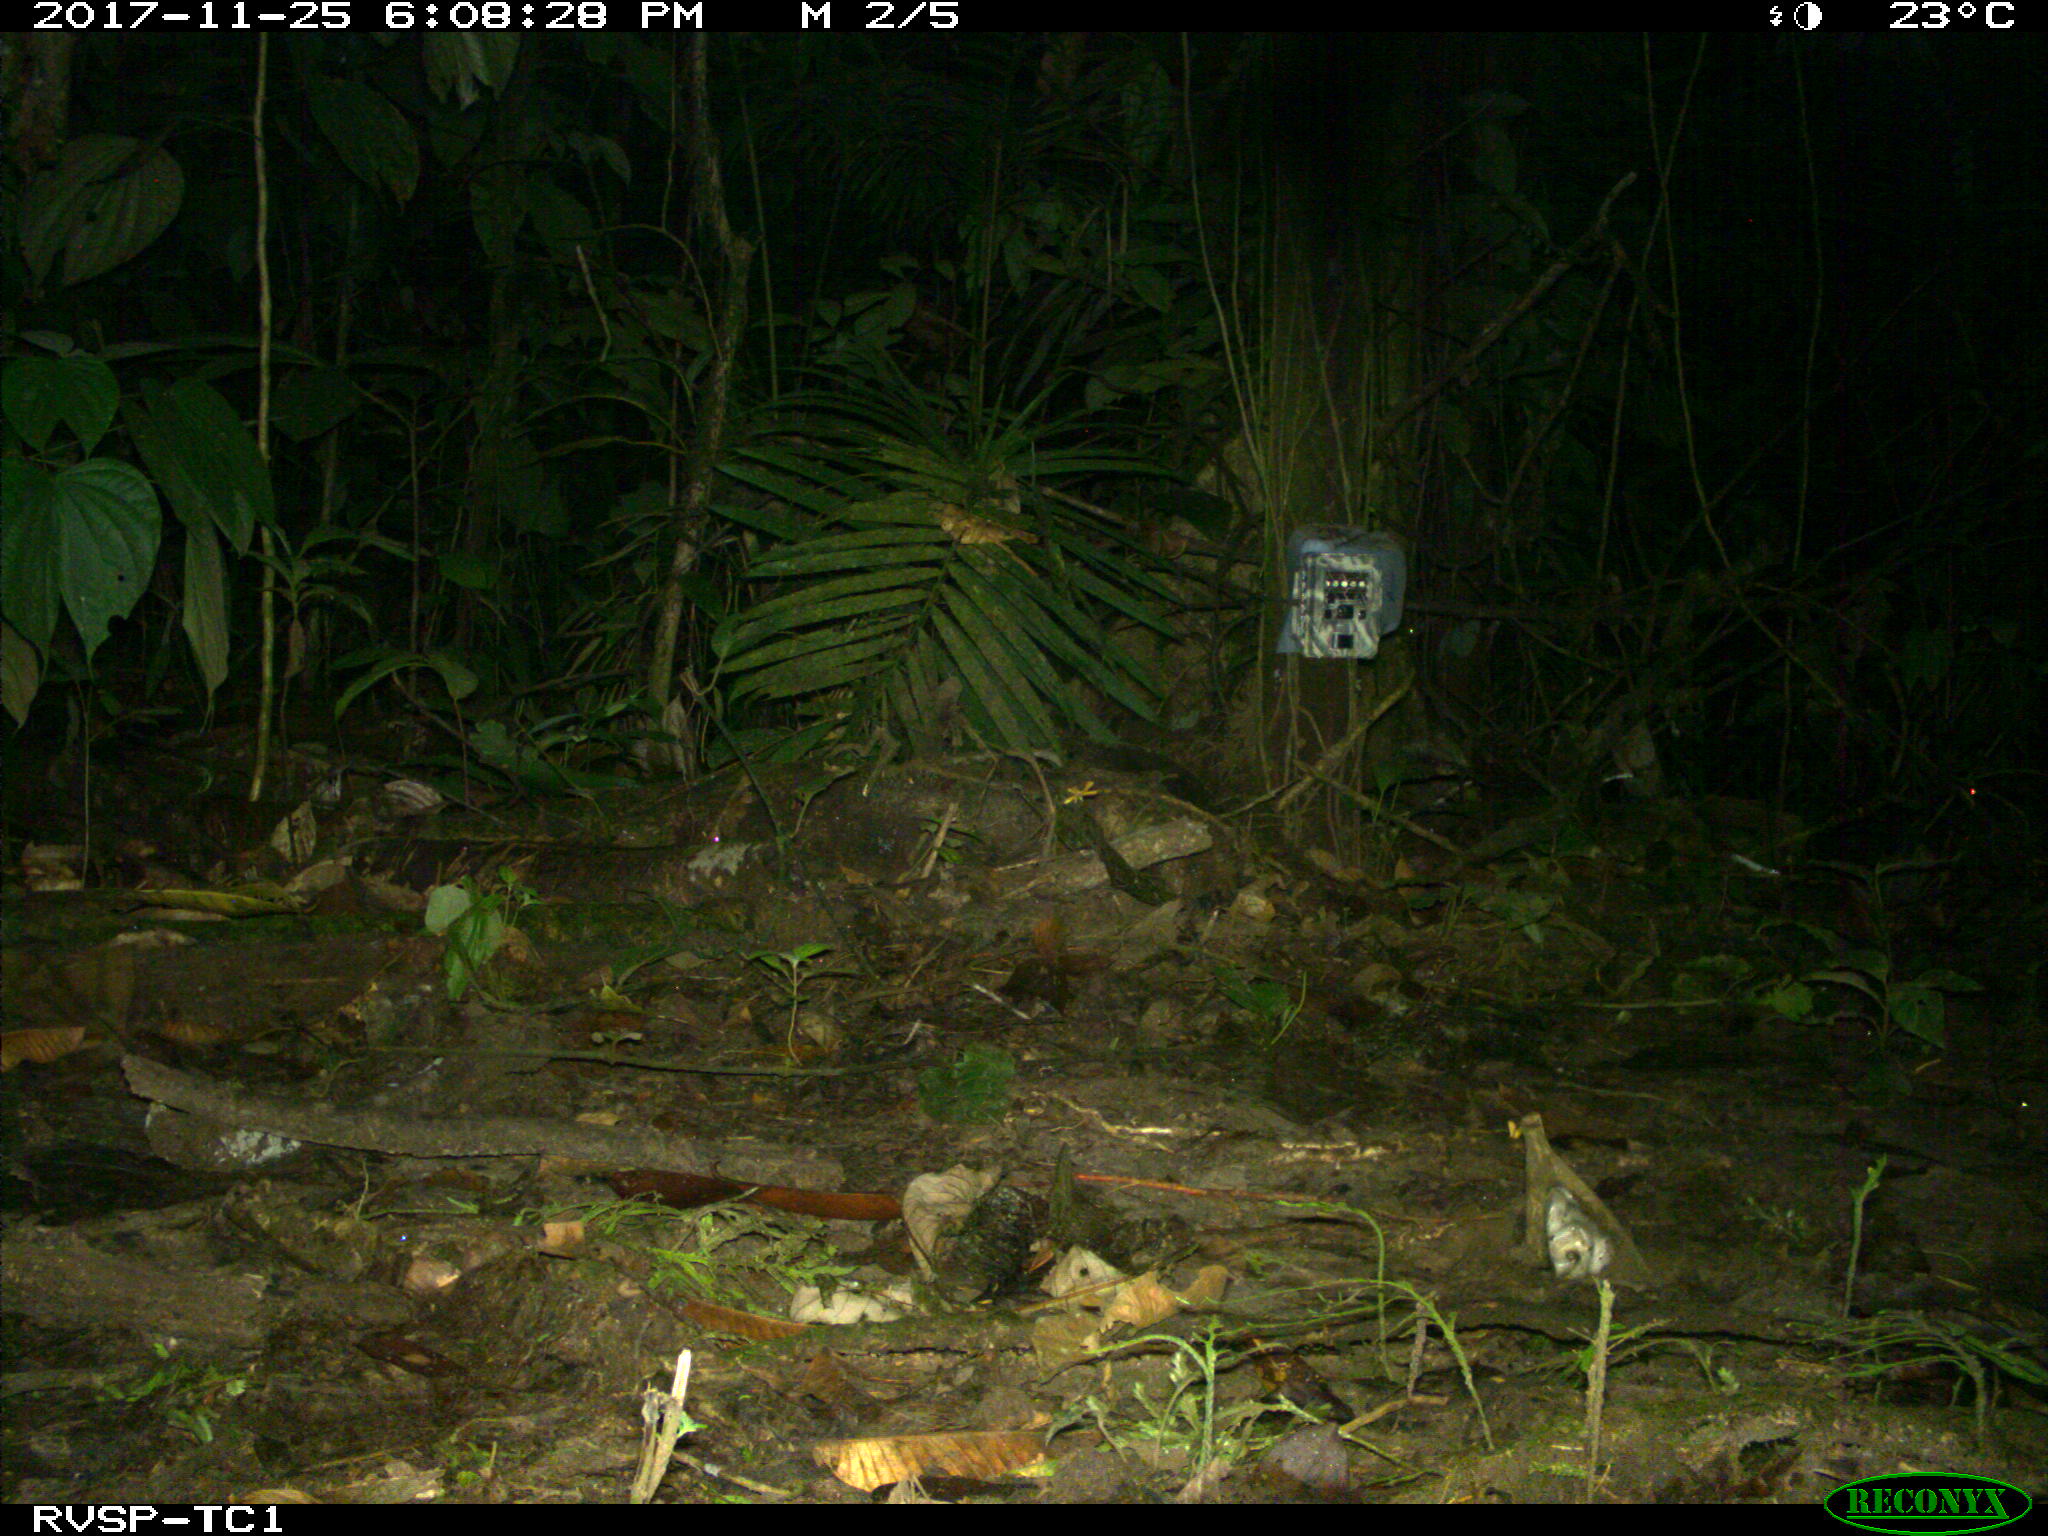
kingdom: Animalia
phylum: Chordata
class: Mammalia
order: Rodentia
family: Dasyproctidae
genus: Dasyprocta
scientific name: Dasyprocta punctata
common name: Central american agouti
